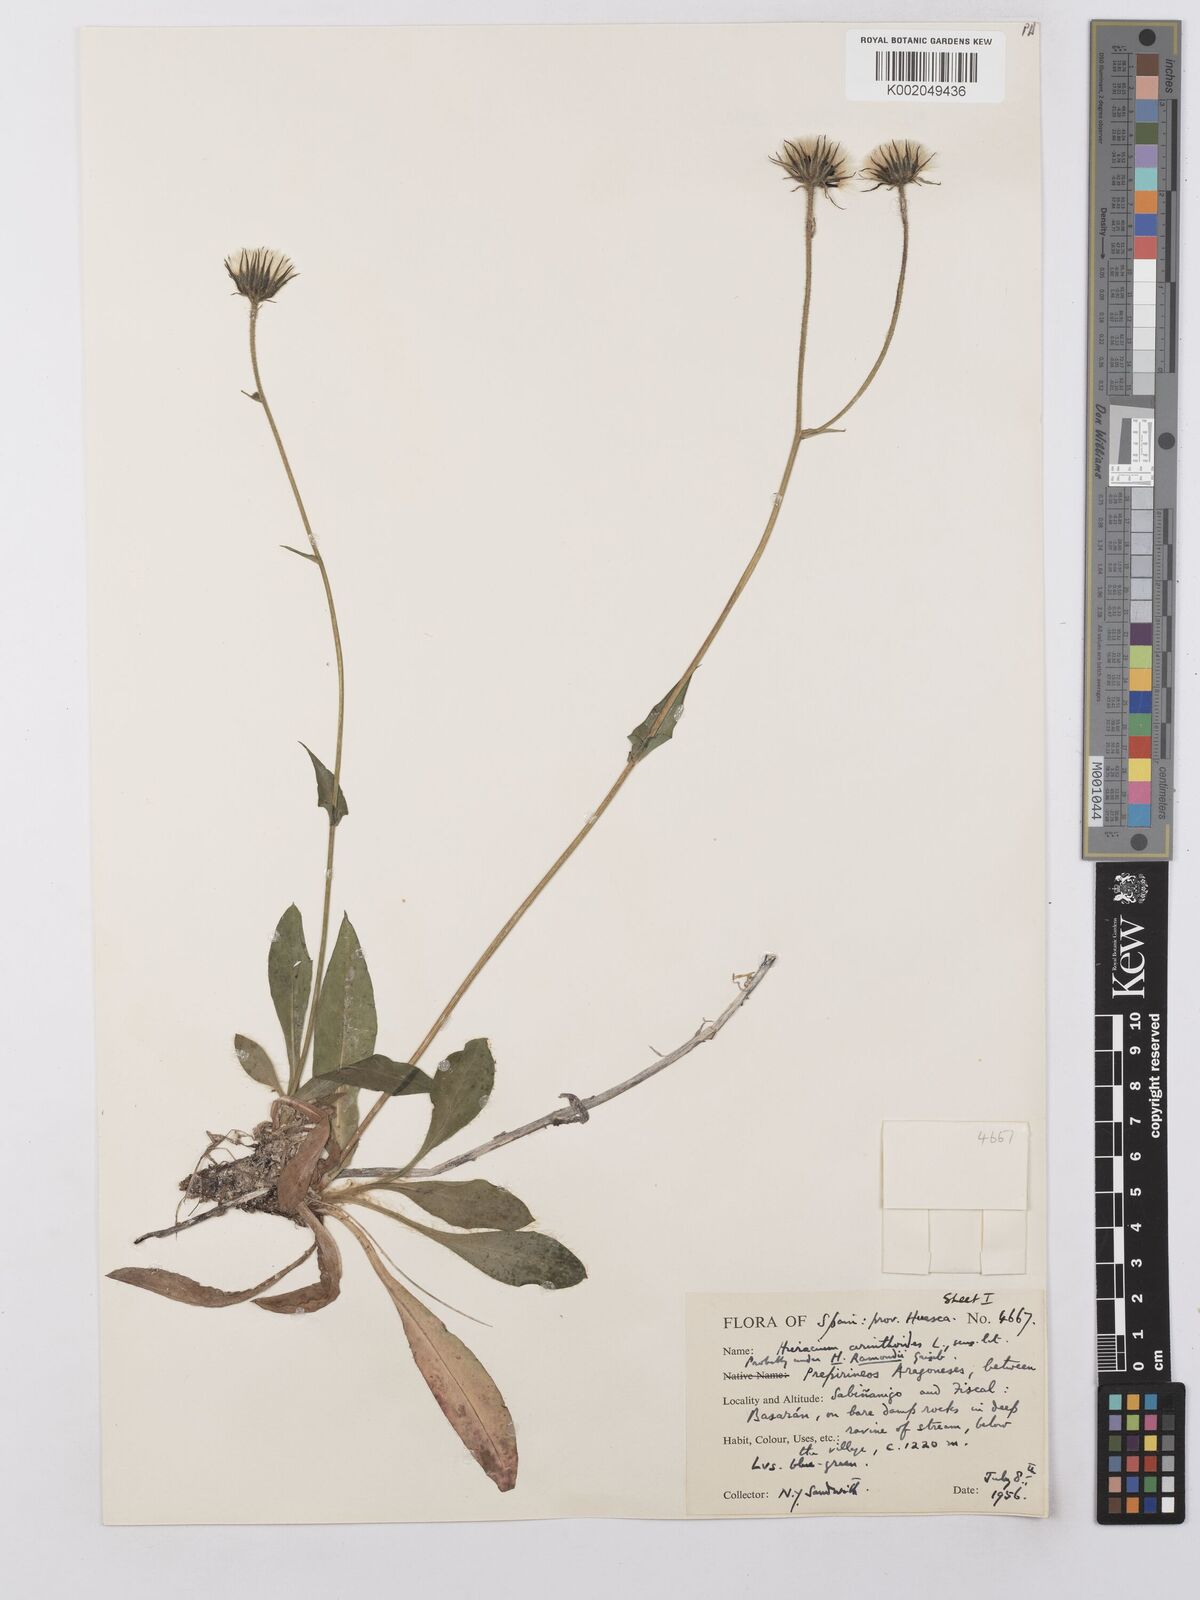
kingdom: Plantae
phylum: Tracheophyta
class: Magnoliopsida
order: Asterales
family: Asteraceae
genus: Hieracium
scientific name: Hieracium ramondii
